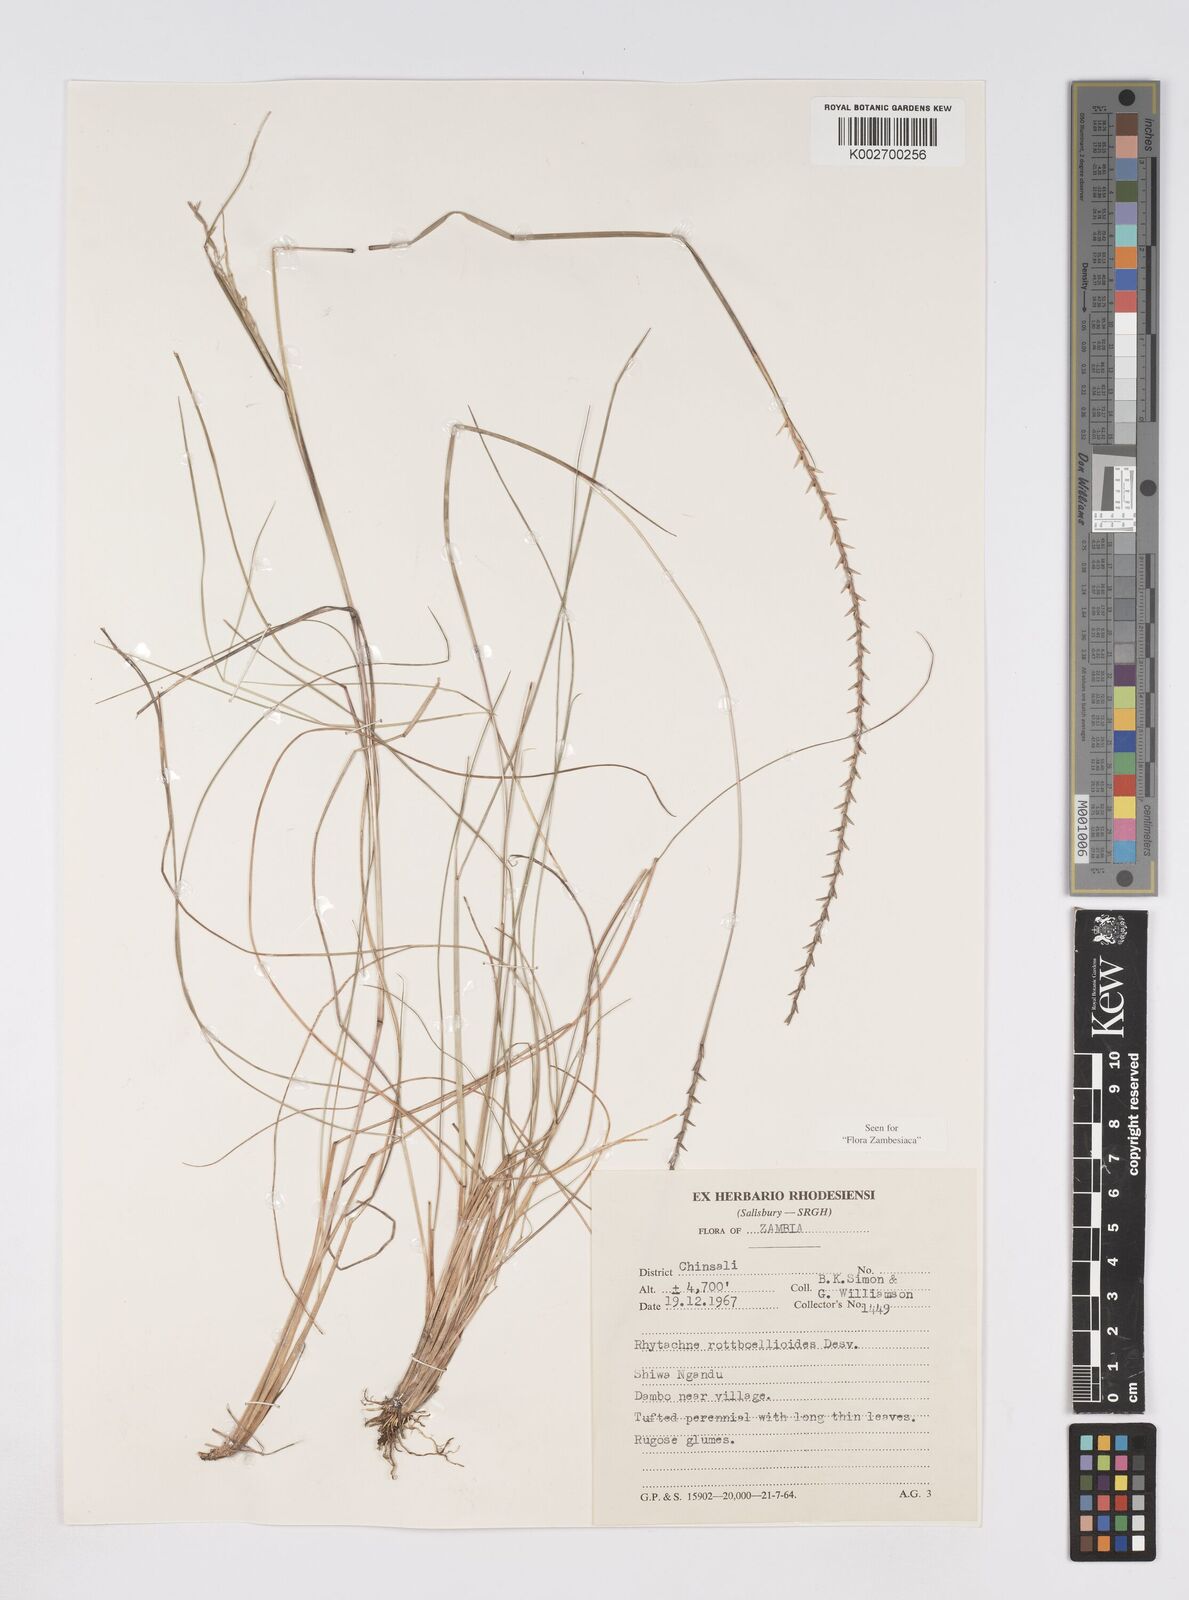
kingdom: Plantae
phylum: Tracheophyta
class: Liliopsida
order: Poales
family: Poaceae
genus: Rhytachne
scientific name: Rhytachne rottboellioides
